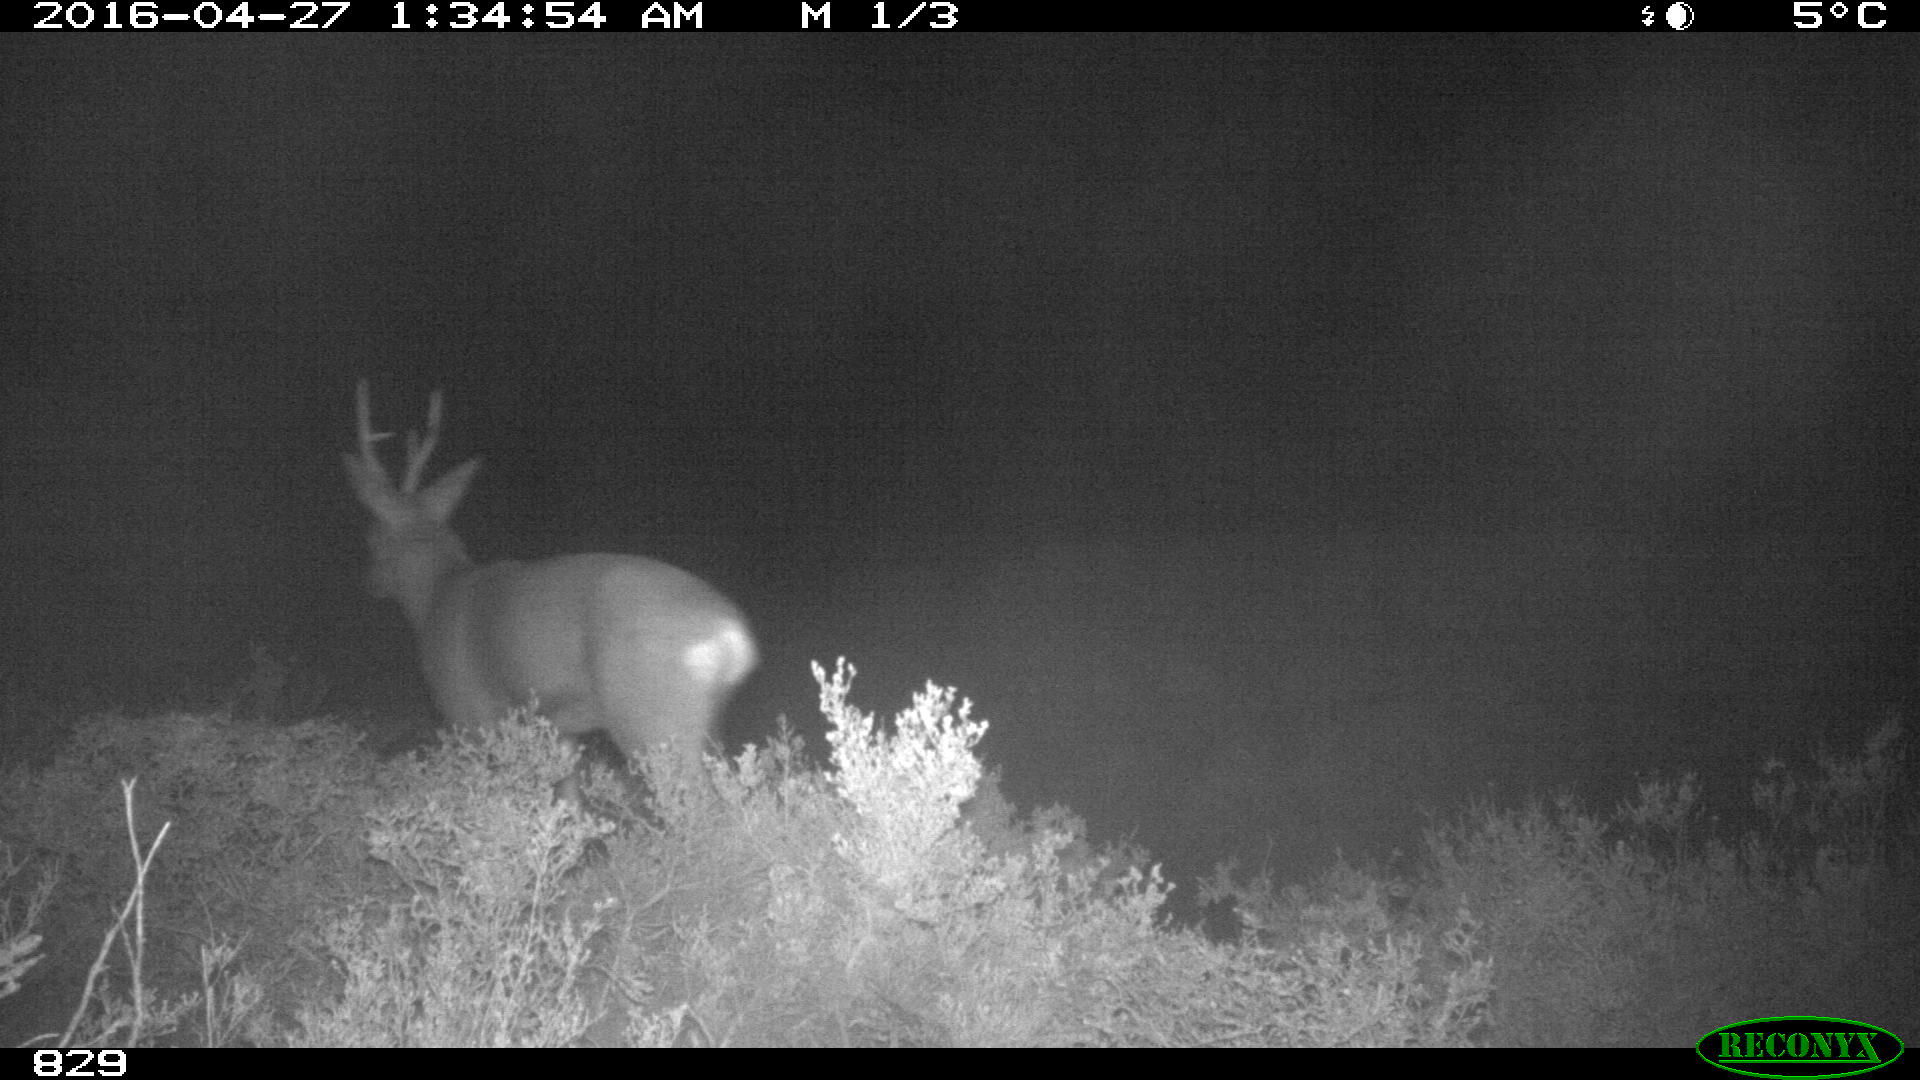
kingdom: Animalia
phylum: Chordata
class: Mammalia
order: Artiodactyla
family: Cervidae
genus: Capreolus
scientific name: Capreolus capreolus
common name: Western roe deer
